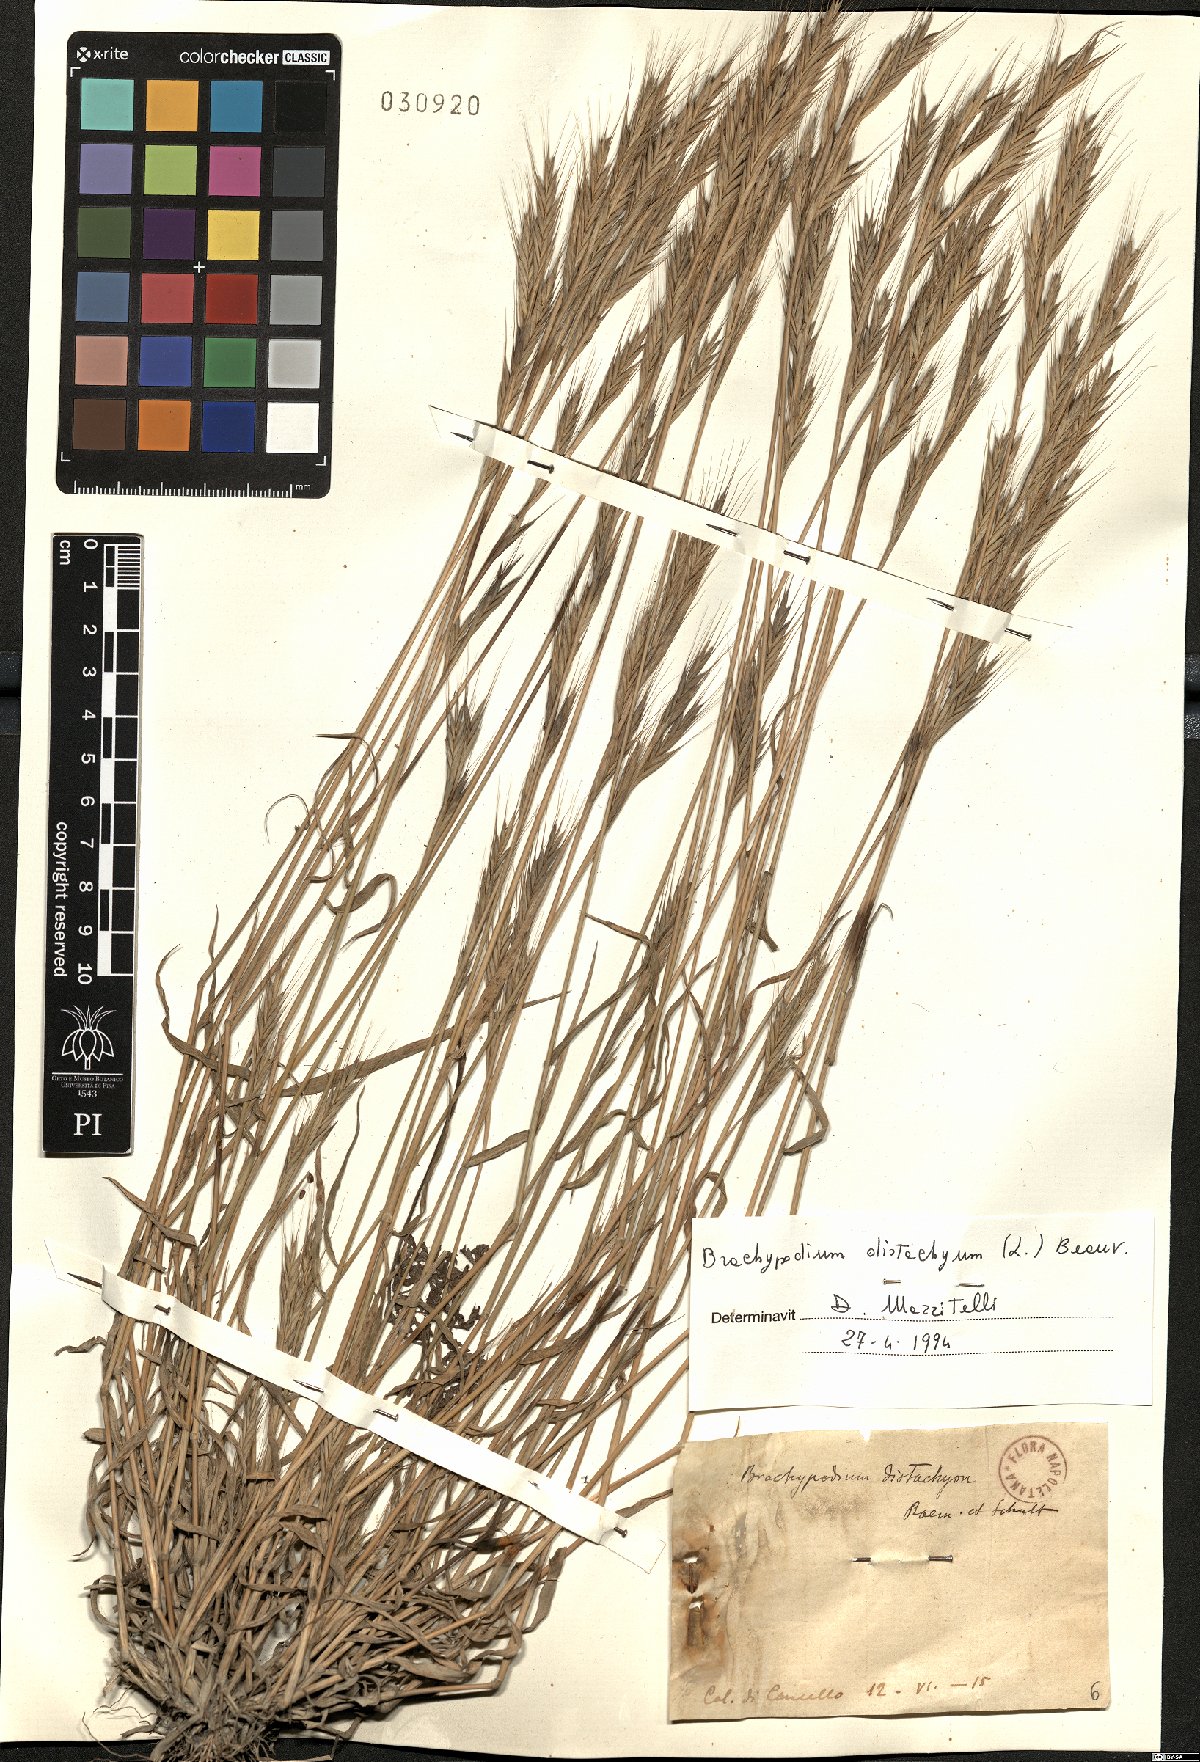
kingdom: Plantae
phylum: Tracheophyta
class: Liliopsida
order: Poales
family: Poaceae
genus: Brachypodium
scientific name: Brachypodium distachyon
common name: Stiff brome
